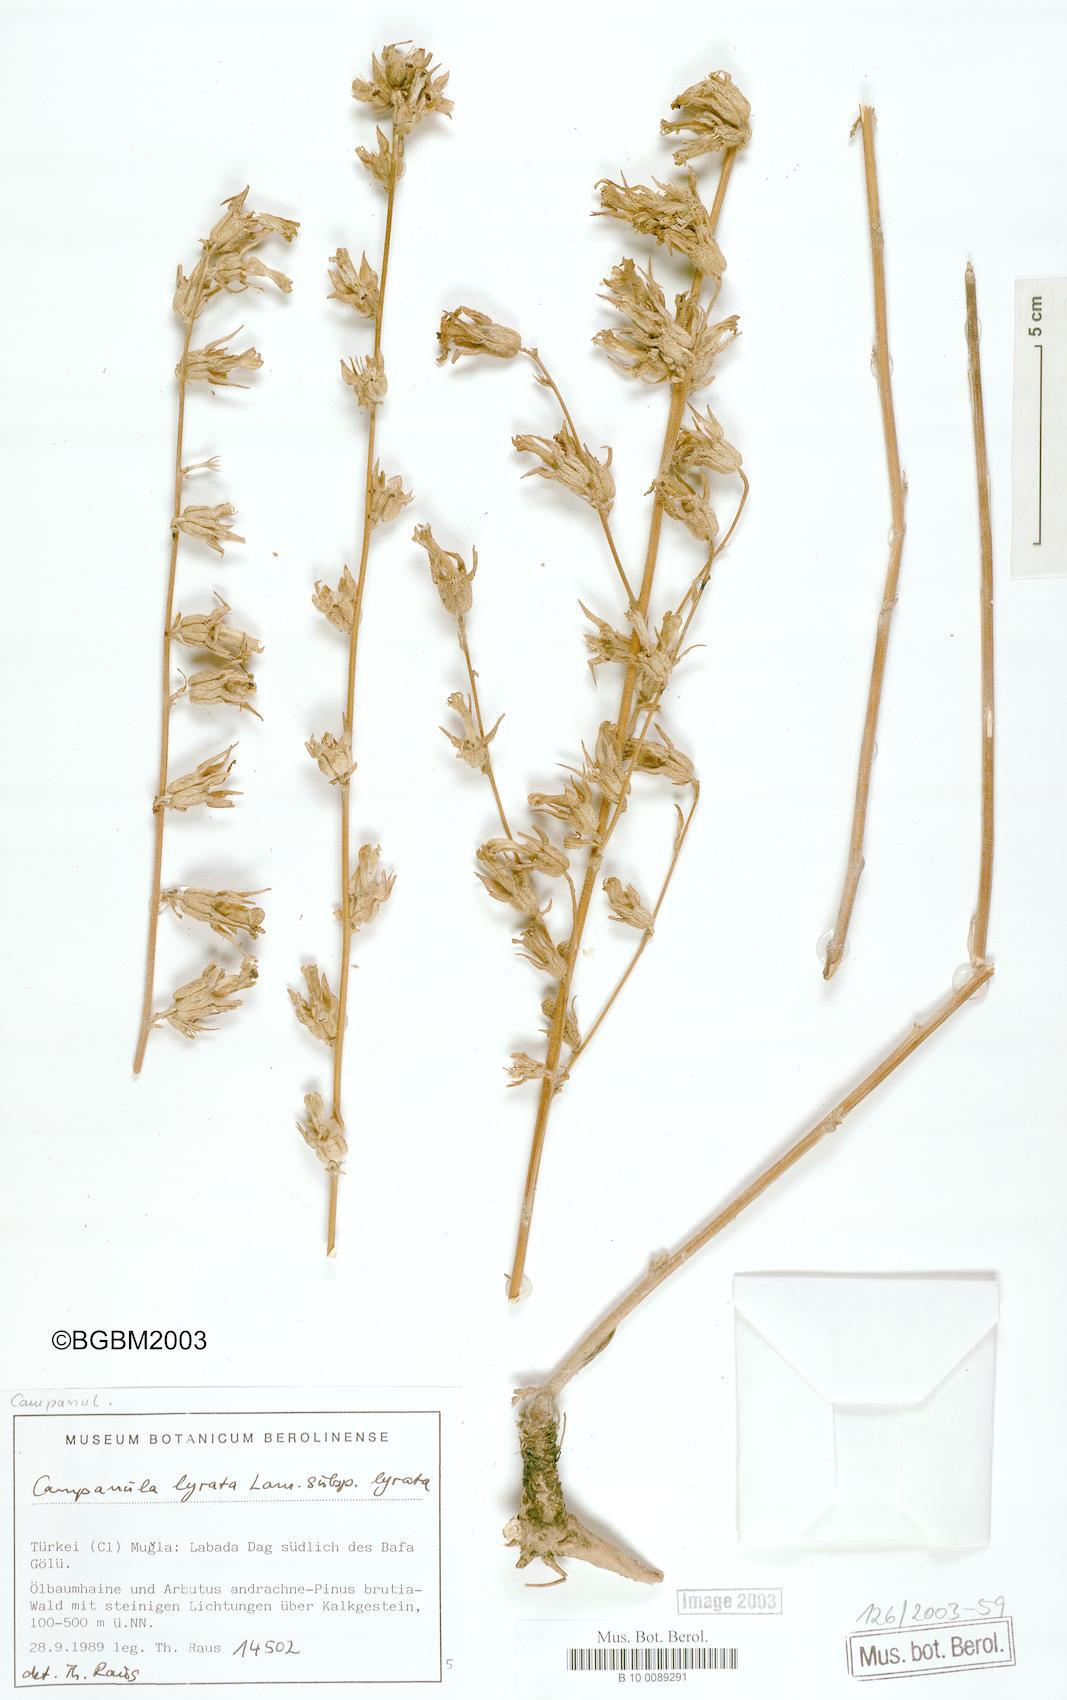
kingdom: Plantae
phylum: Tracheophyta
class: Magnoliopsida
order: Asterales
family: Campanulaceae
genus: Campanula
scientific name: Campanula lyrata
